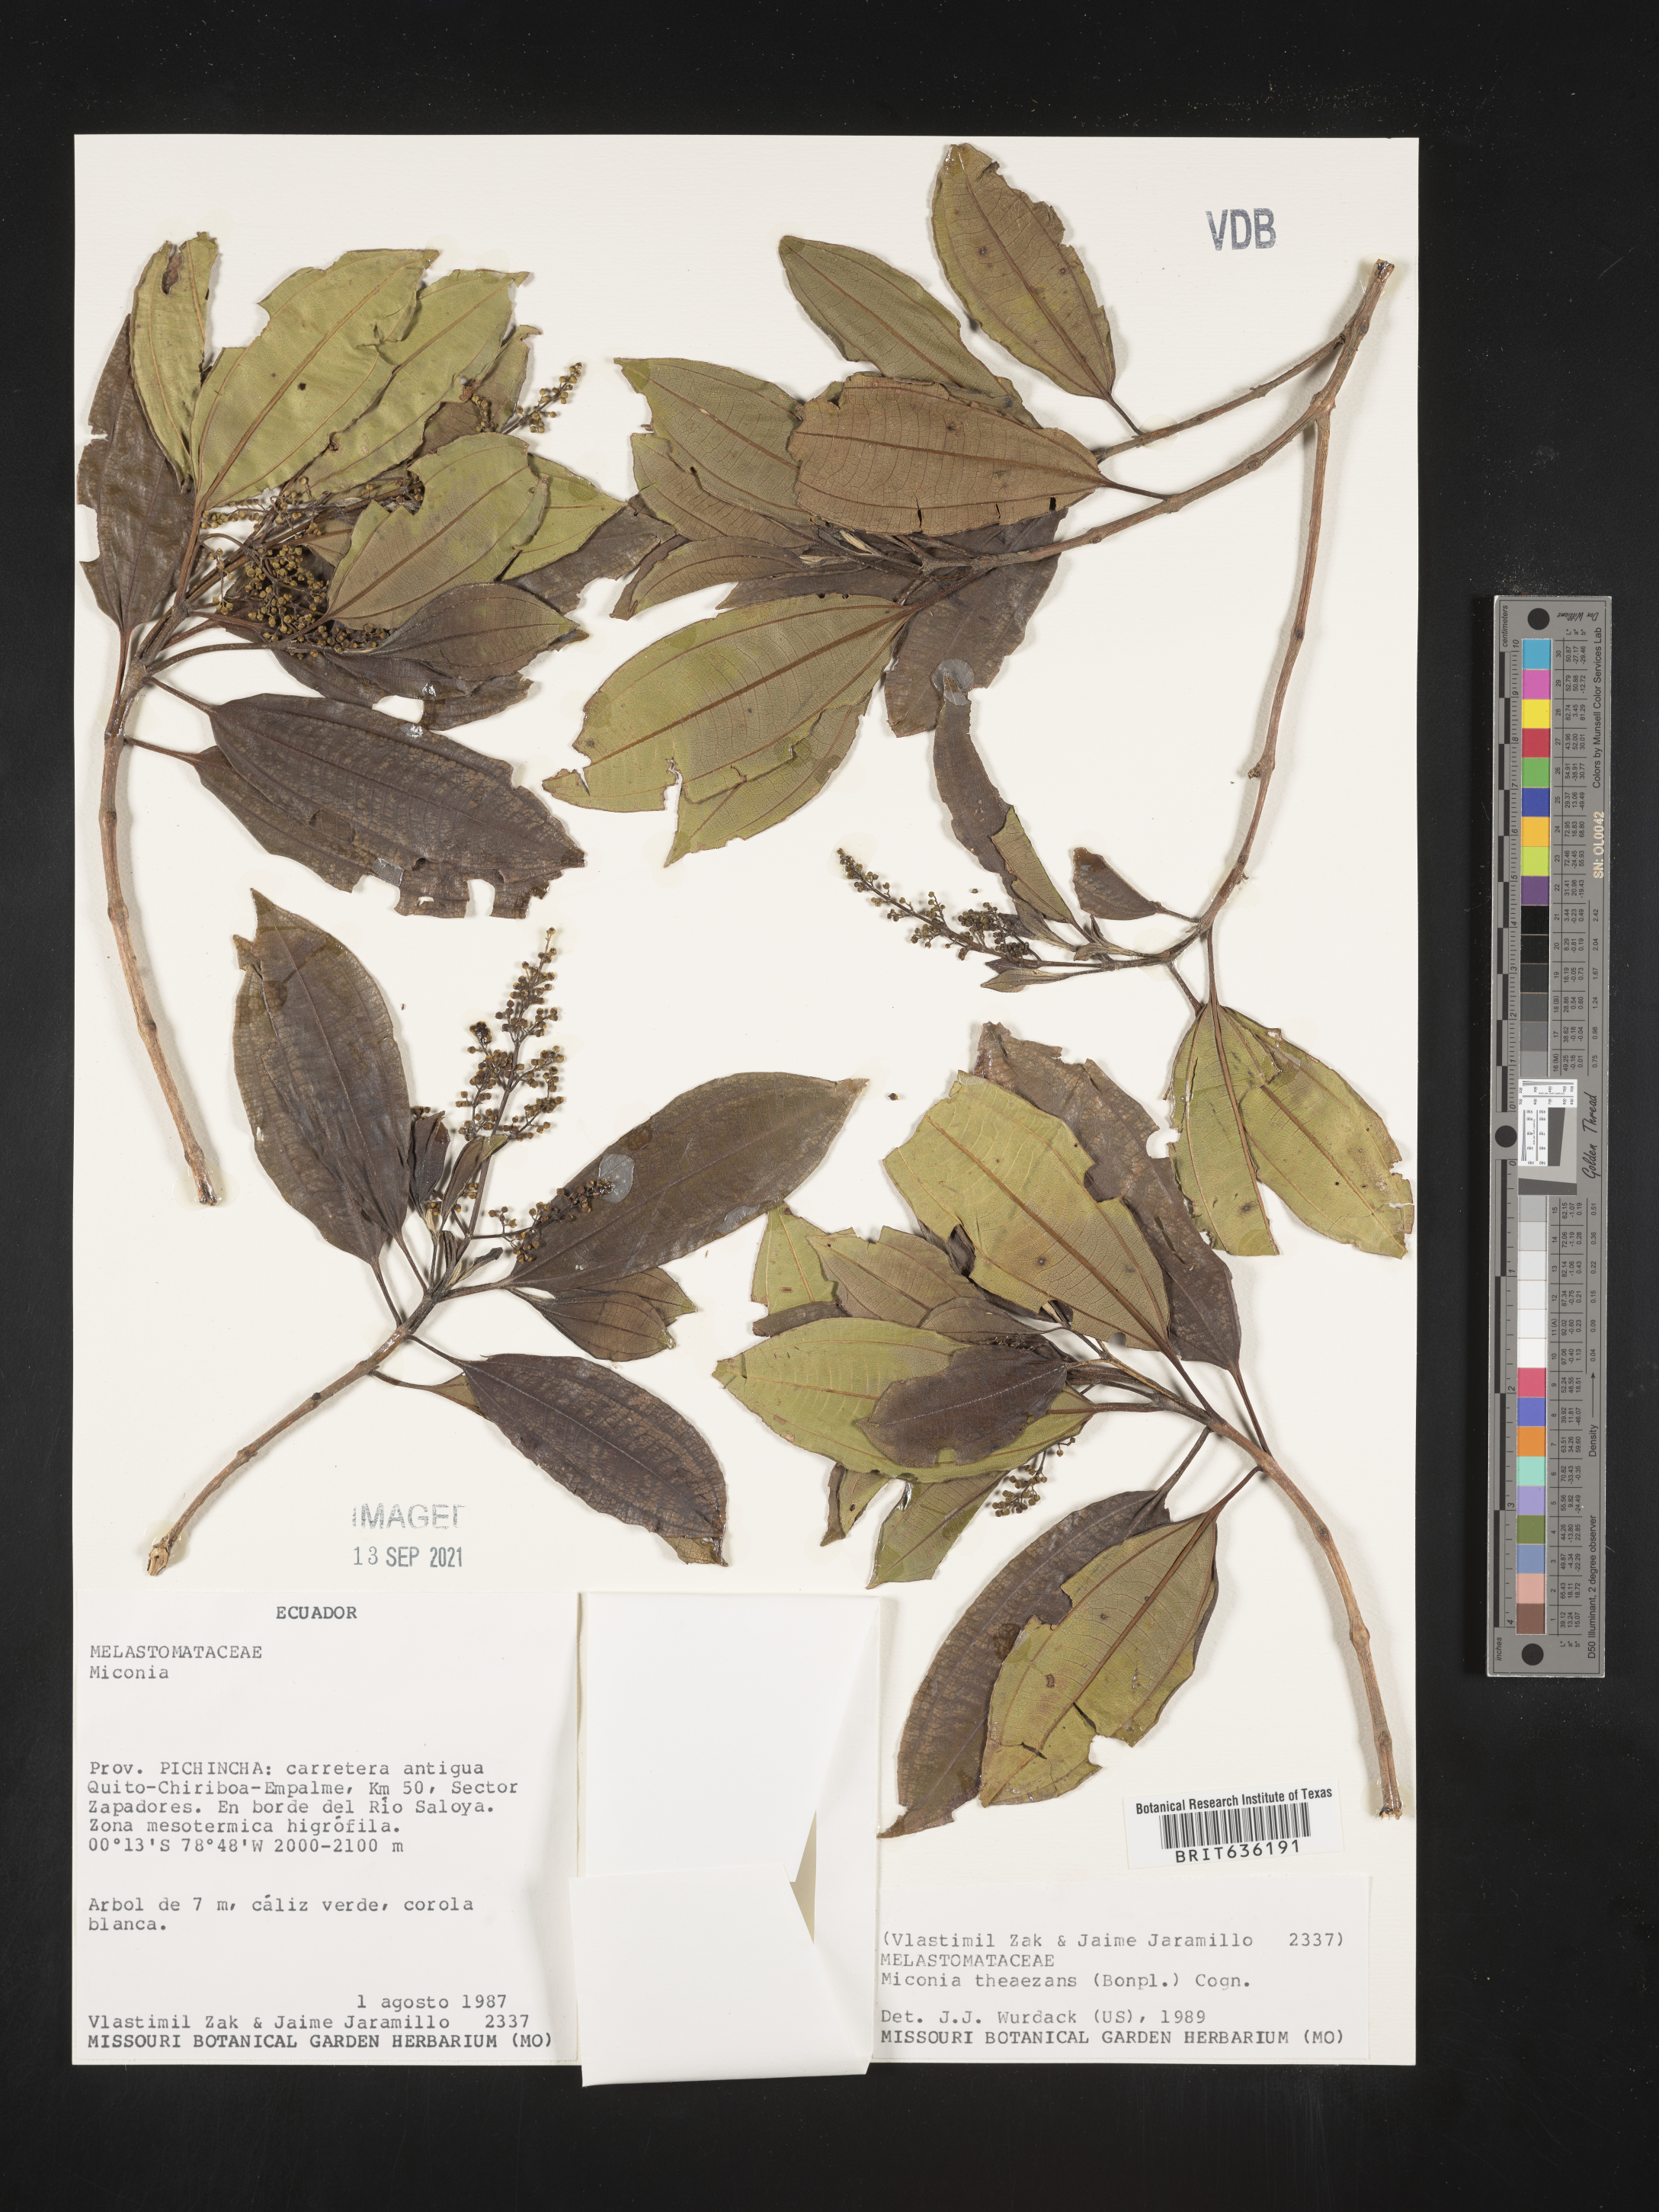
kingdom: Plantae
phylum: Tracheophyta
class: Magnoliopsida
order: Myrtales
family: Melastomataceae
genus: Miconia
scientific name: Miconia
